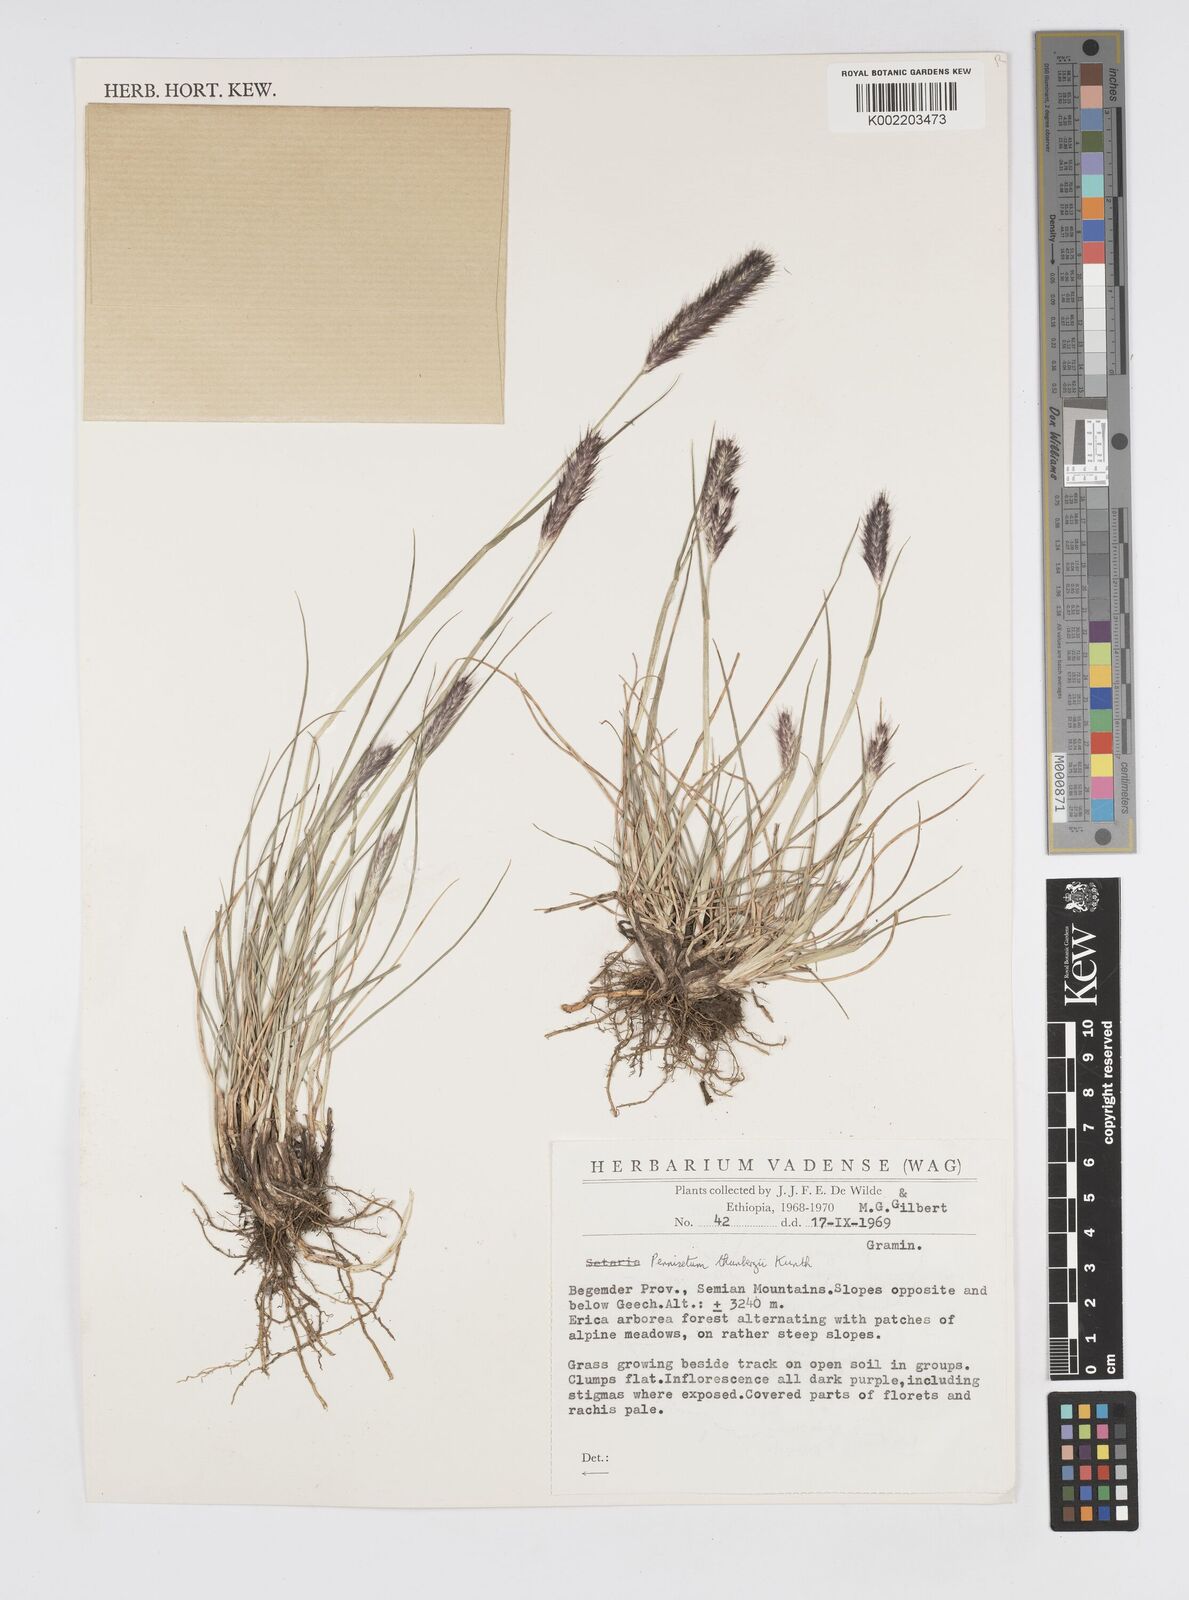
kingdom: Plantae
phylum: Tracheophyta
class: Liliopsida
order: Poales
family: Poaceae
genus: Cenchrus
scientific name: Cenchrus geniculatus
